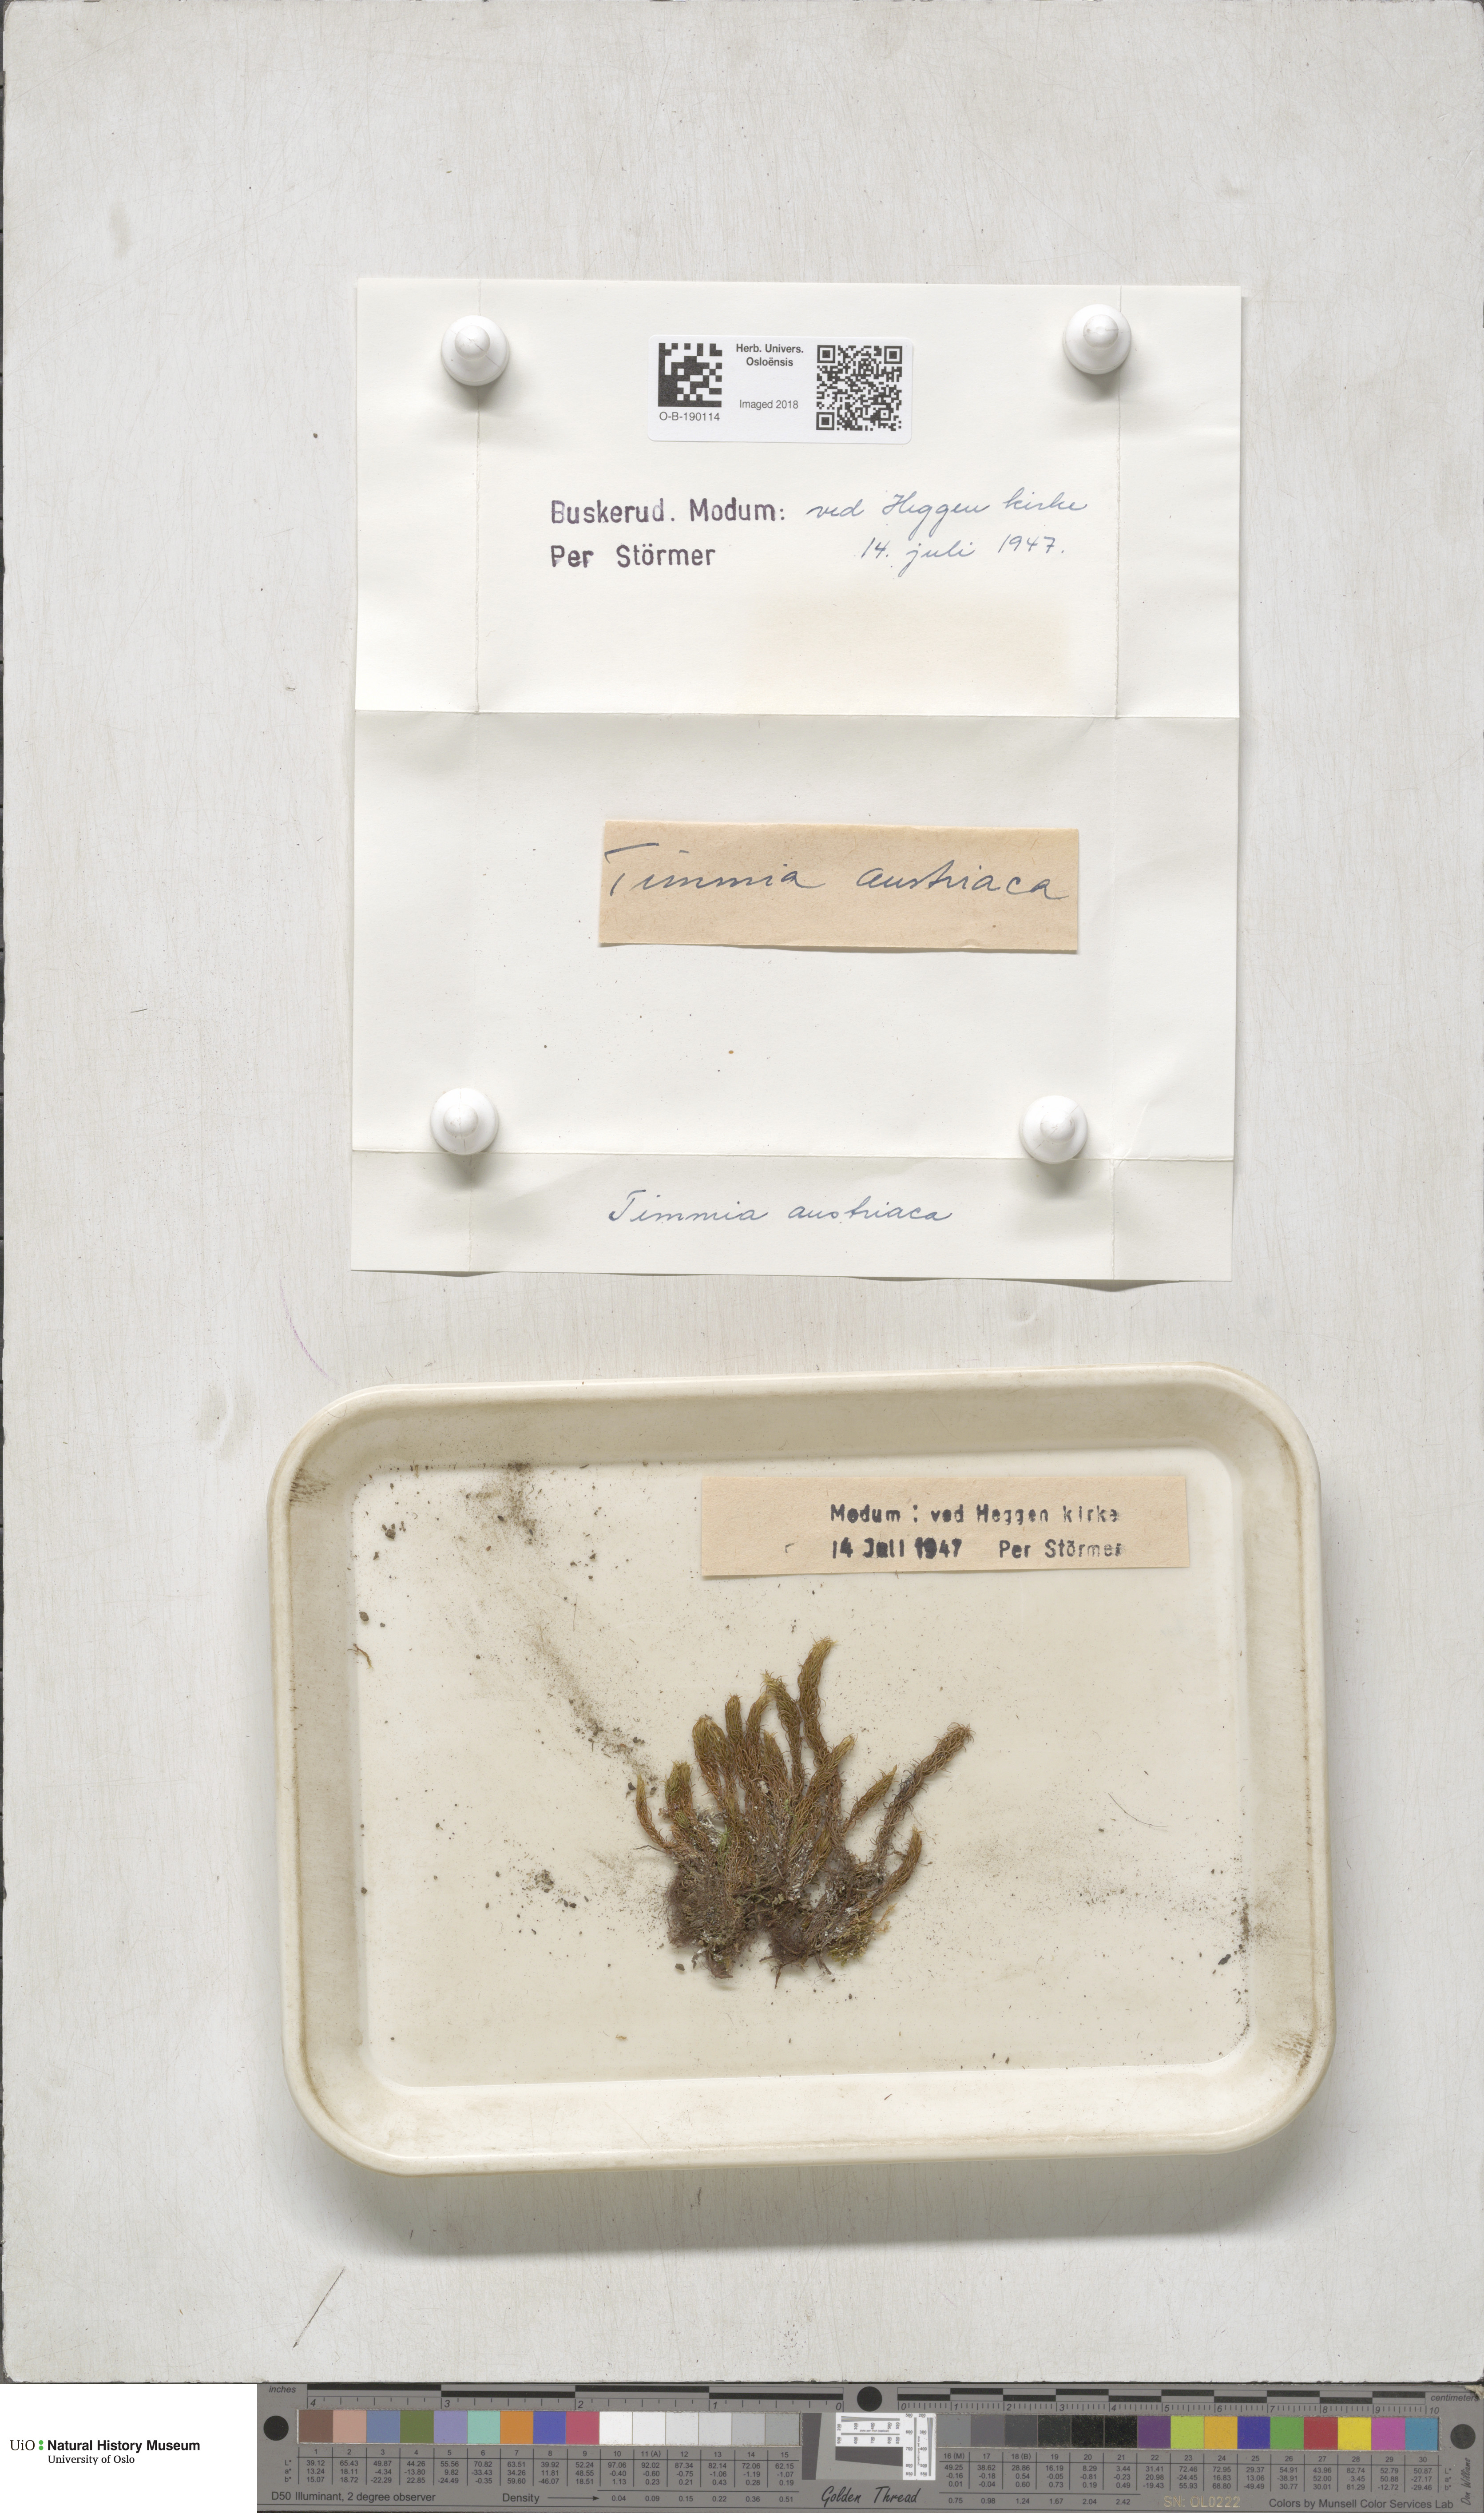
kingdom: Plantae
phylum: Bryophyta
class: Bryopsida
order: Timmiales
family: Timmiaceae
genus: Timmia
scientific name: Timmia austriaca
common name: Austrian timmia
